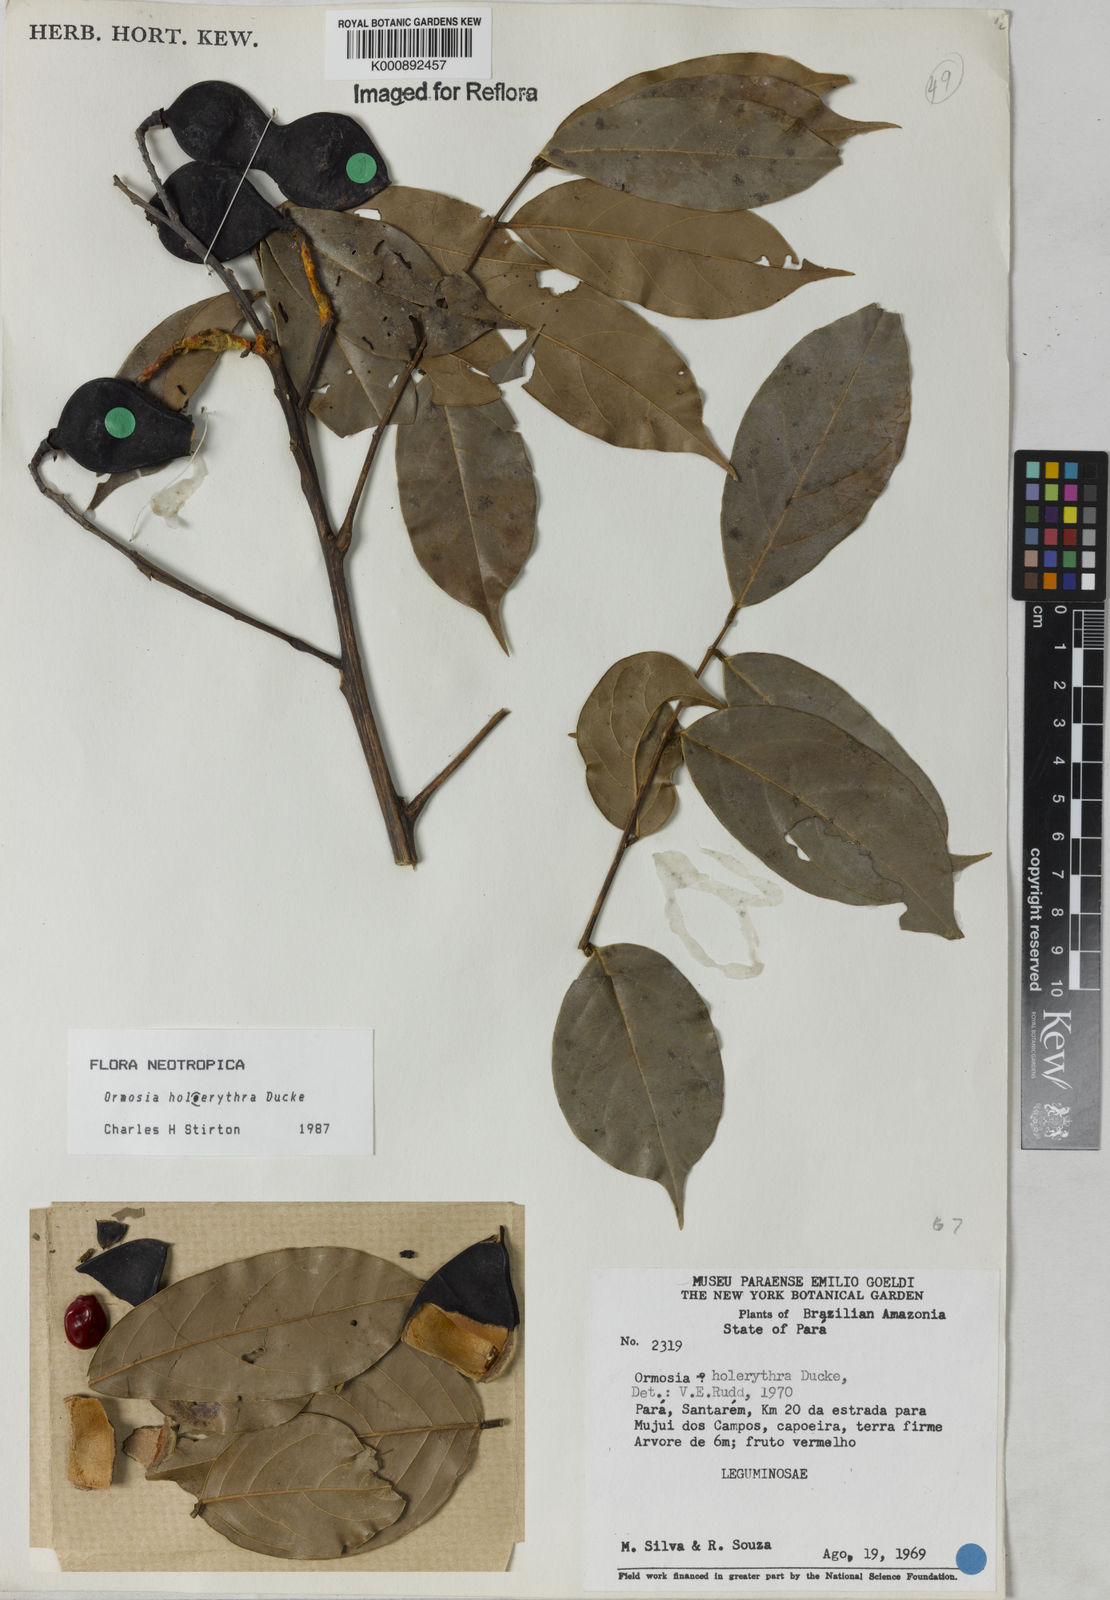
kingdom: Plantae
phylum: Tracheophyta
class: Magnoliopsida
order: Fabales
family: Fabaceae
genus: Ormosia
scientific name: Ormosia holerythra
